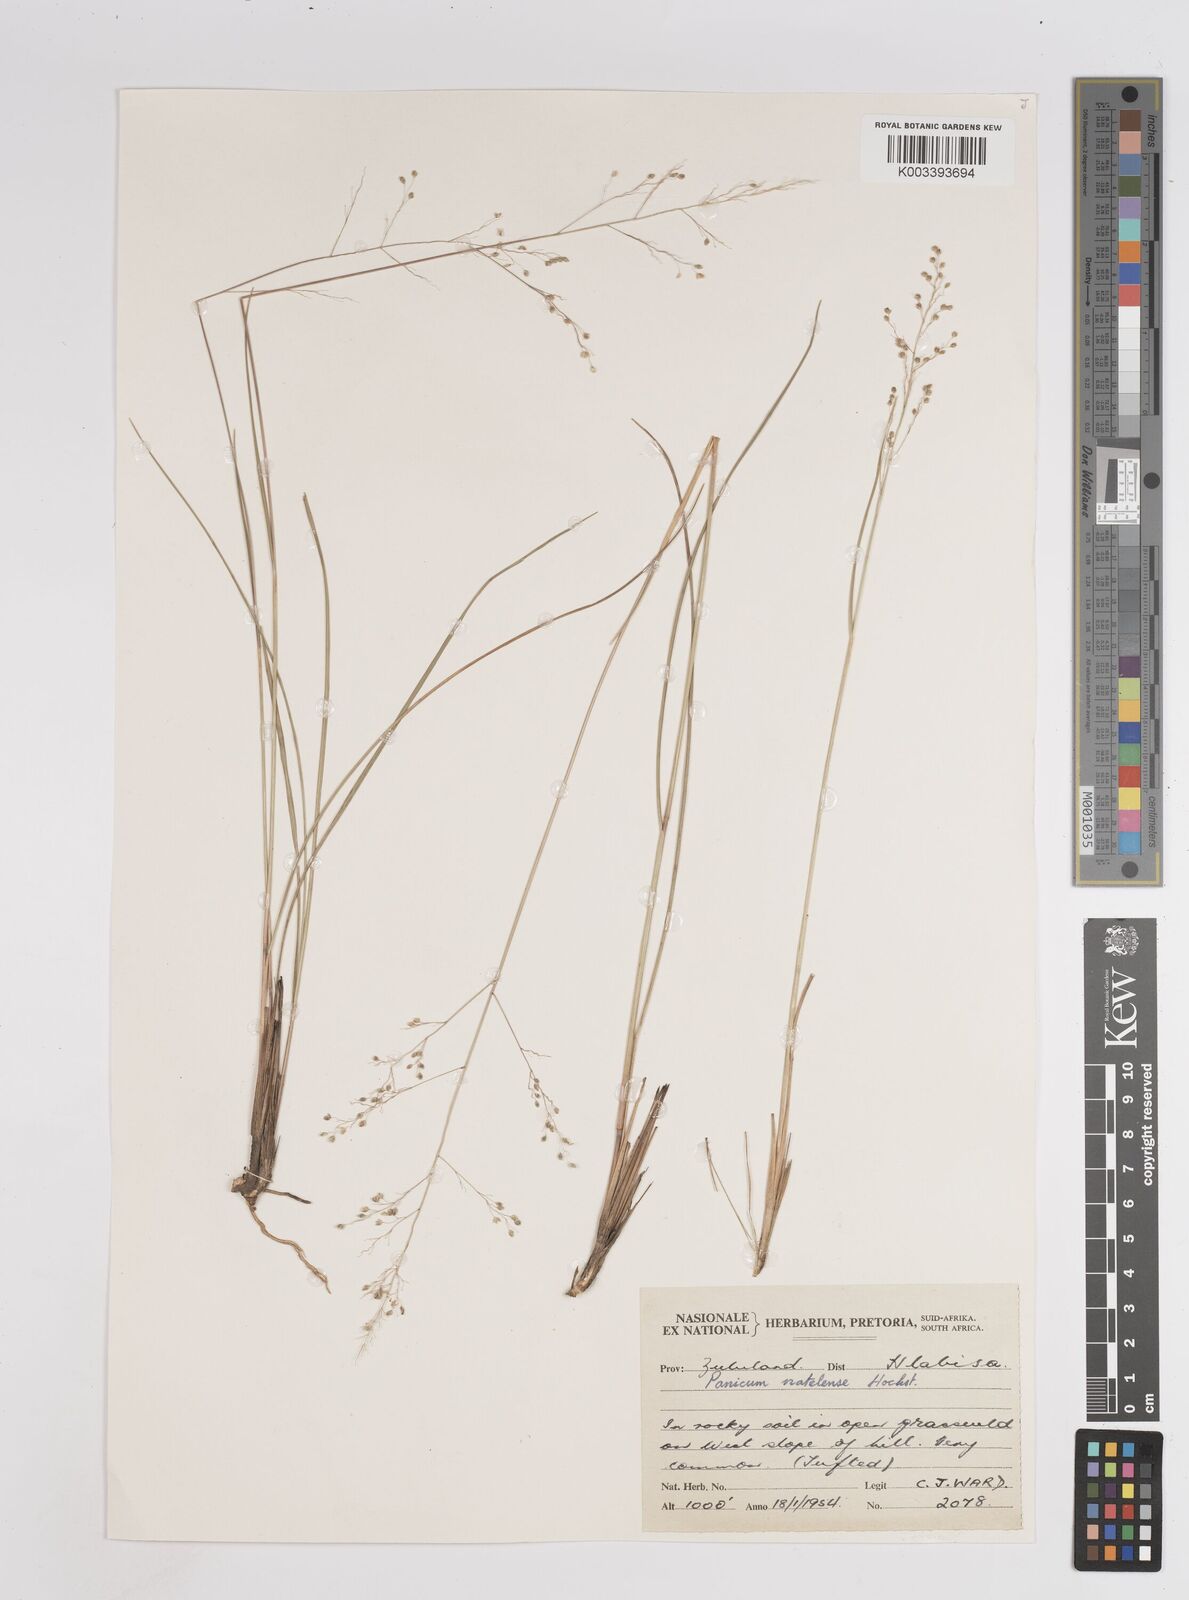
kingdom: Plantae
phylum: Tracheophyta
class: Liliopsida
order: Poales
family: Poaceae
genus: Trichanthecium
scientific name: Trichanthecium natalense
